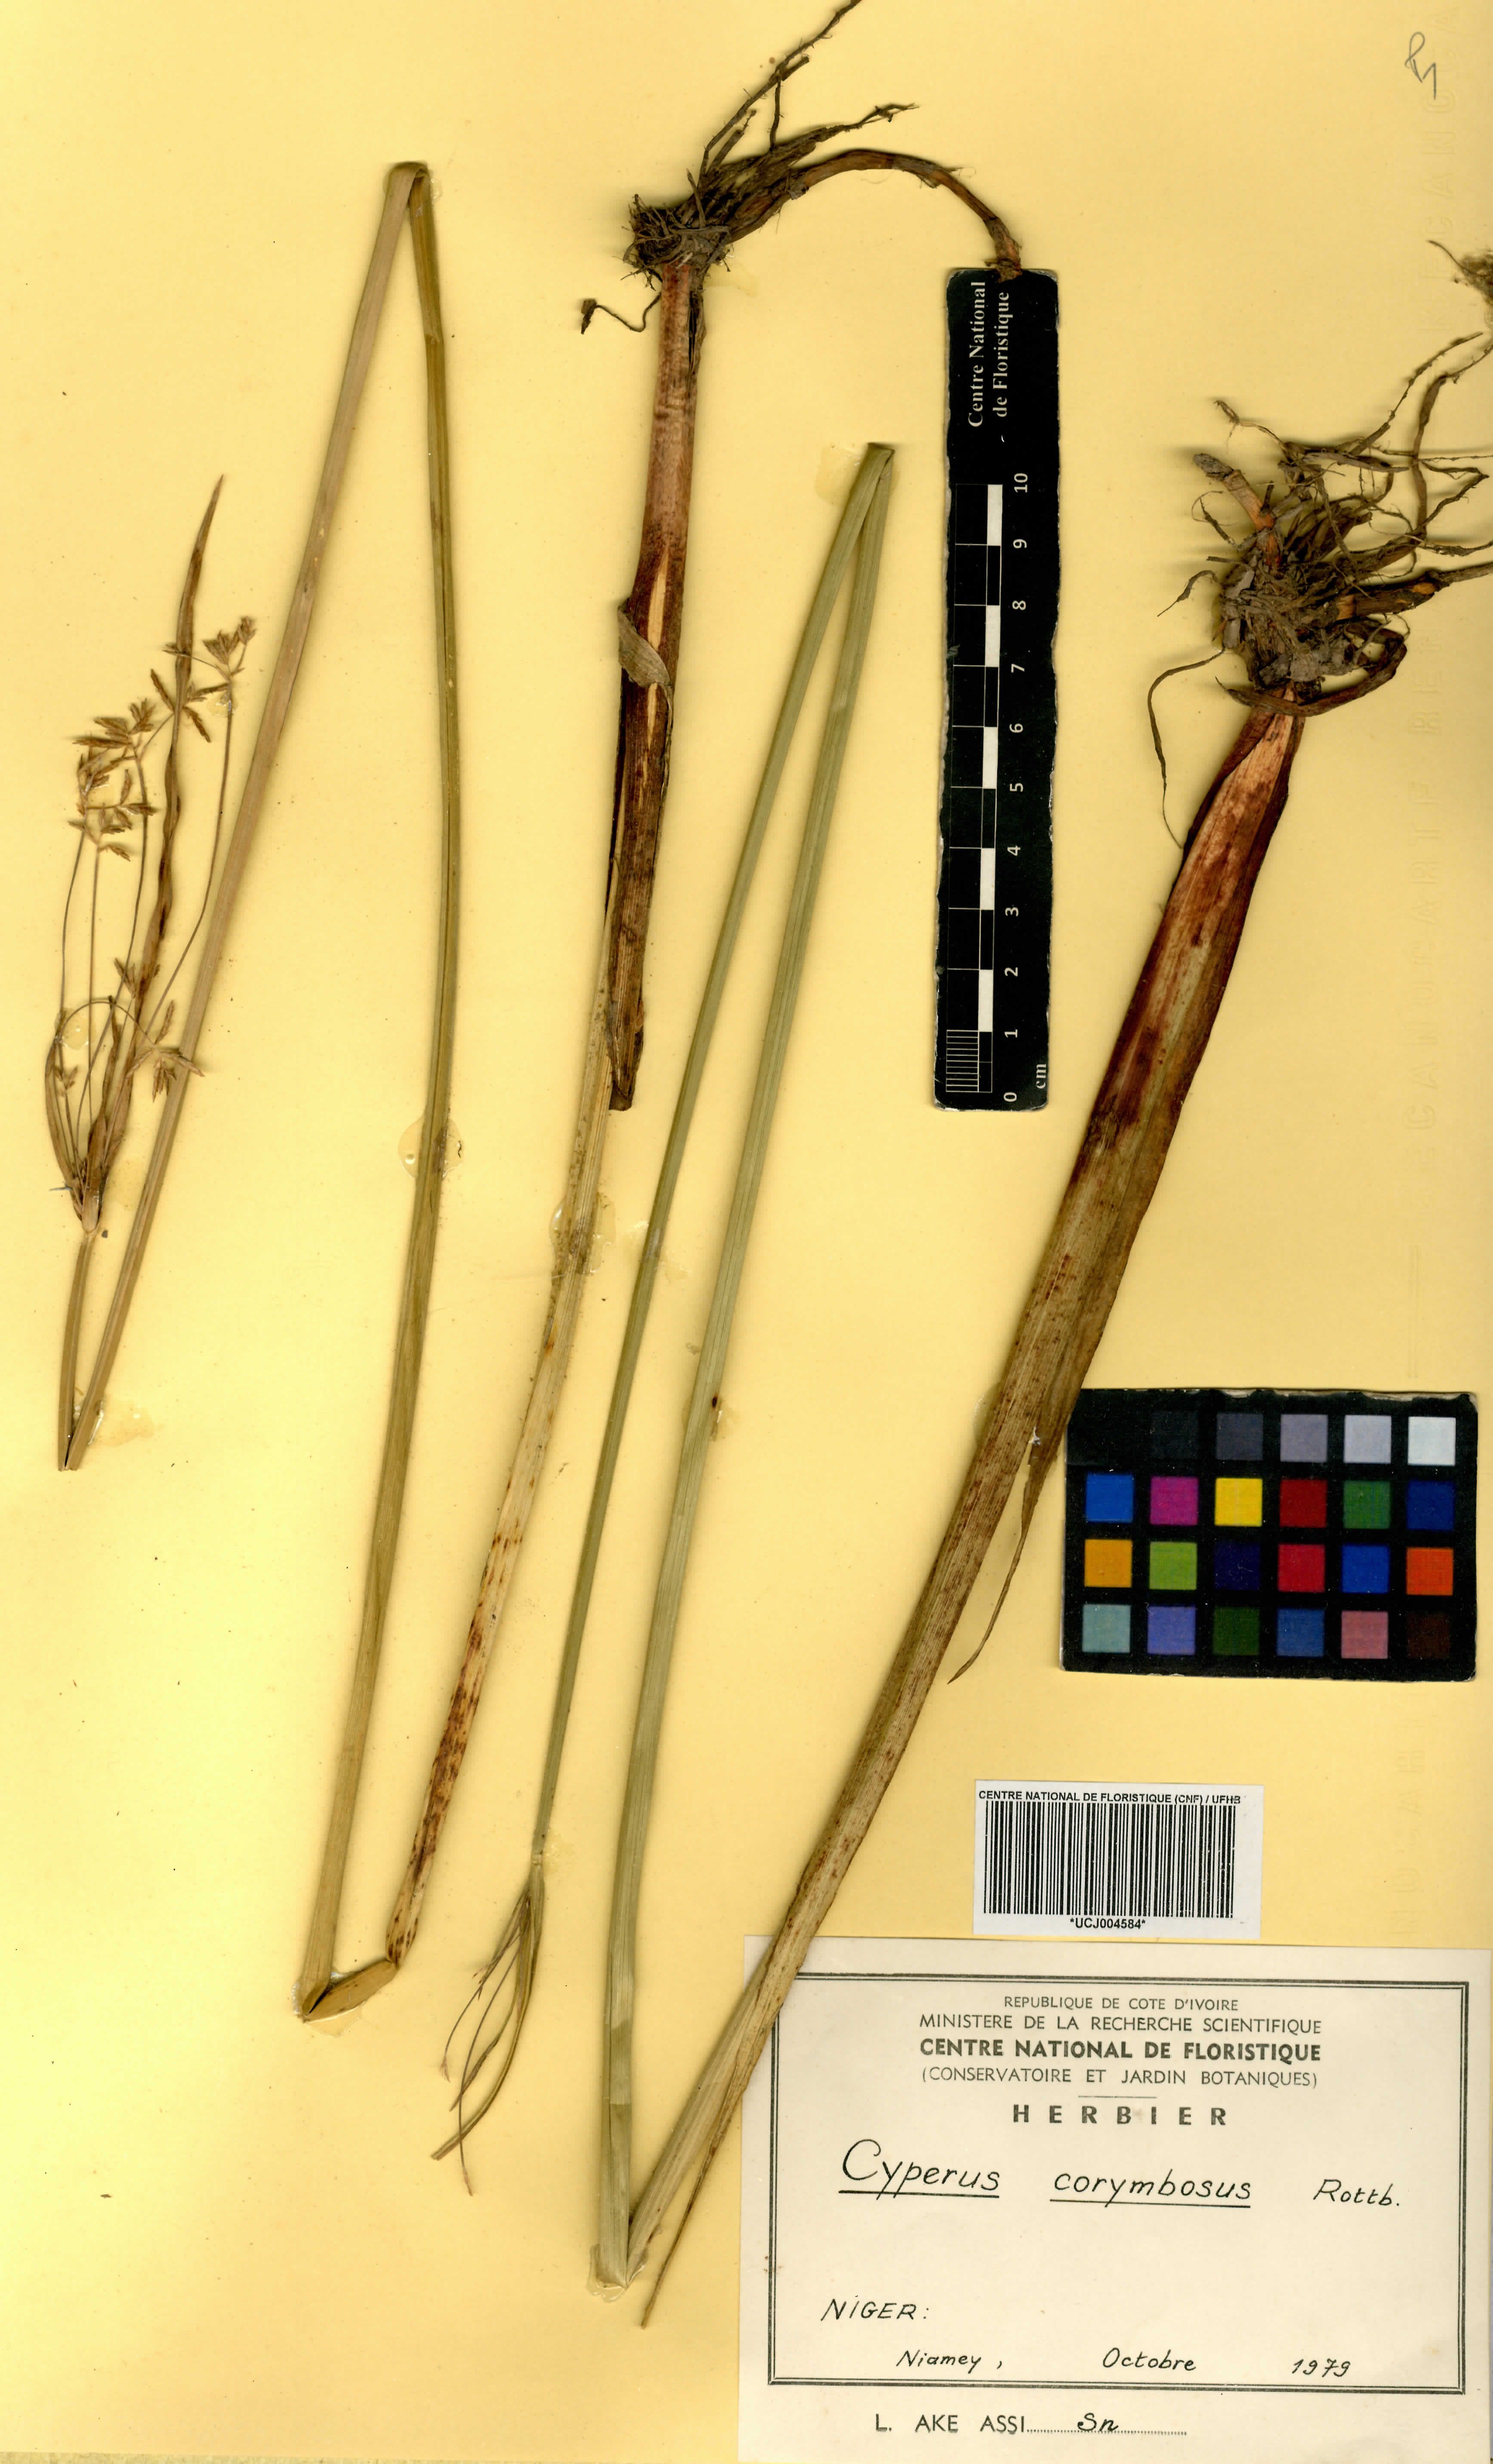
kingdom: Plantae
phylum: Tracheophyta
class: Liliopsida
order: Poales
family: Cyperaceae
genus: Cyperus
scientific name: Cyperus conglomeratus
